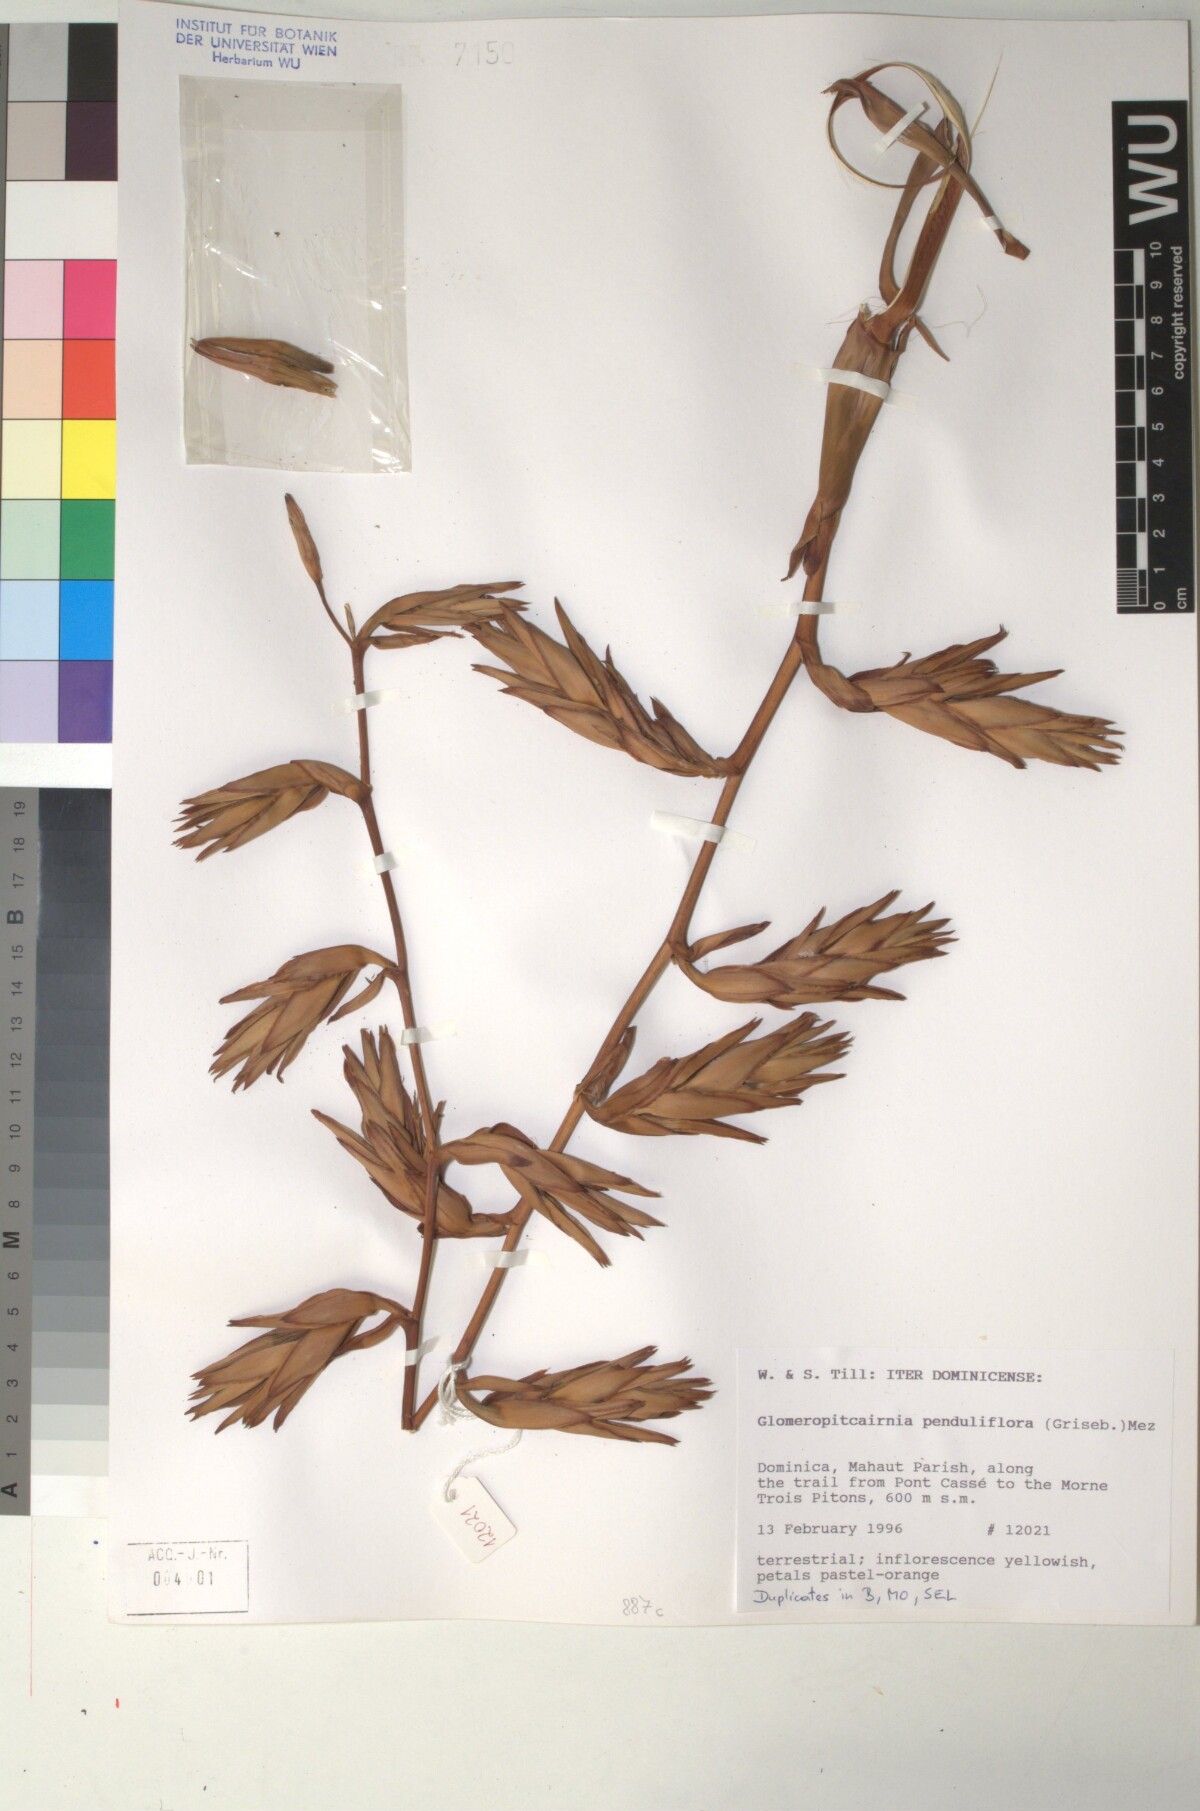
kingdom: Plantae
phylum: Tracheophyta
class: Liliopsida
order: Poales
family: Bromeliaceae
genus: Glomeropitcairnia
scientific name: Glomeropitcairnia penduliflora
